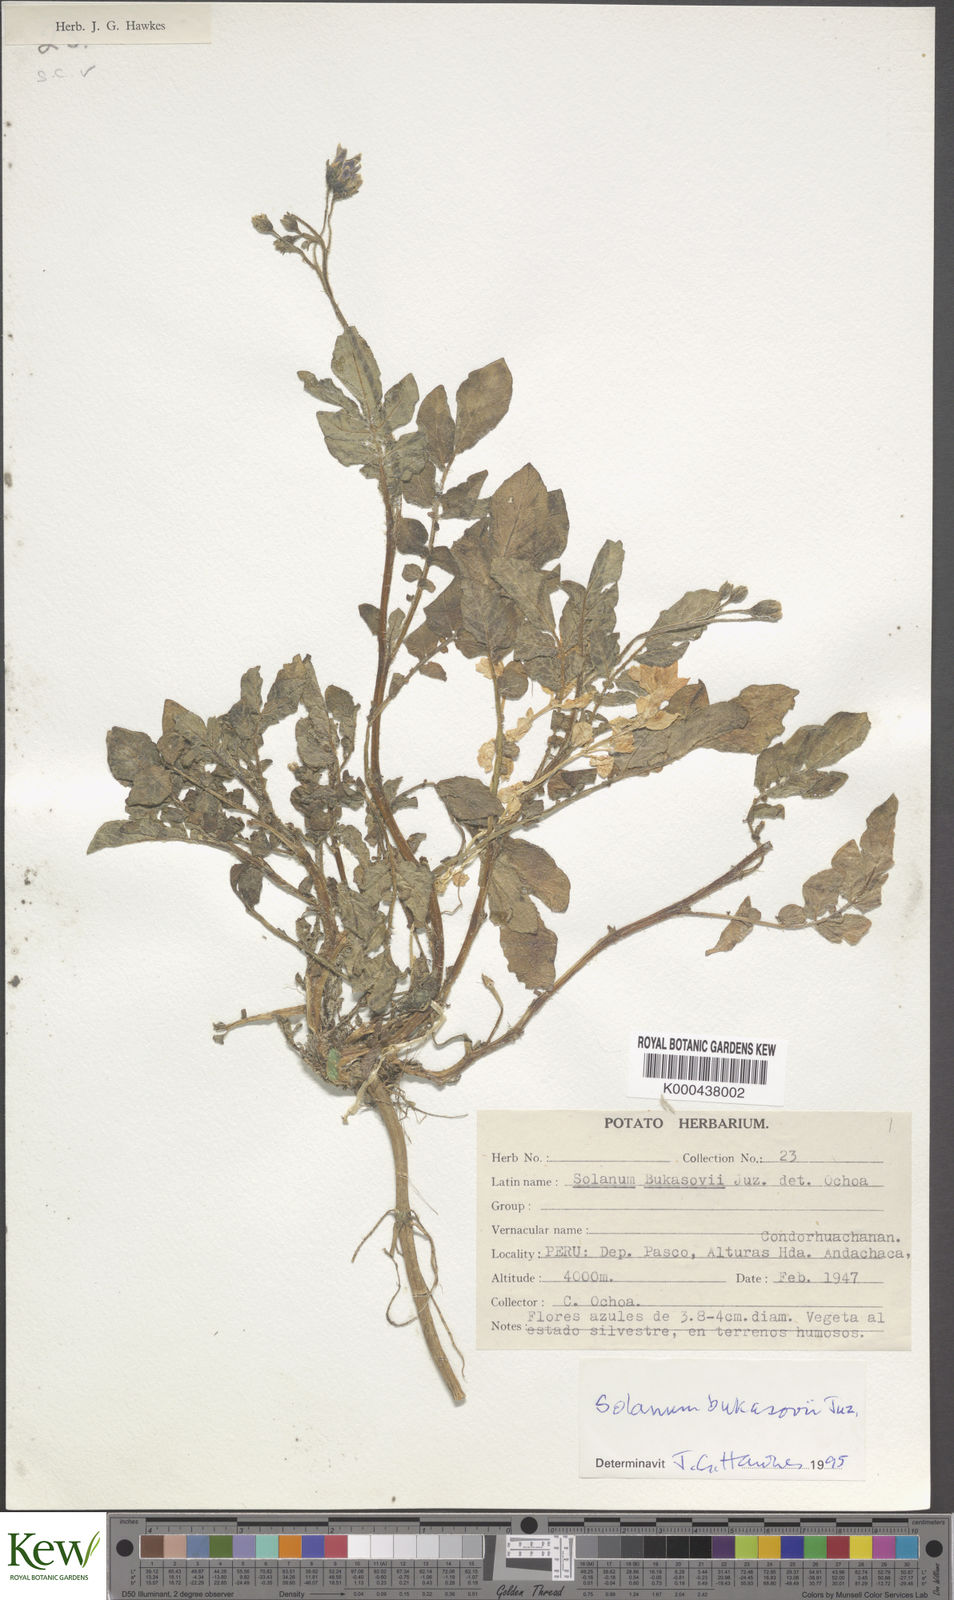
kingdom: Plantae
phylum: Tracheophyta
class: Magnoliopsida
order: Solanales
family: Solanaceae
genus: Solanum
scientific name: Solanum candolleanum
